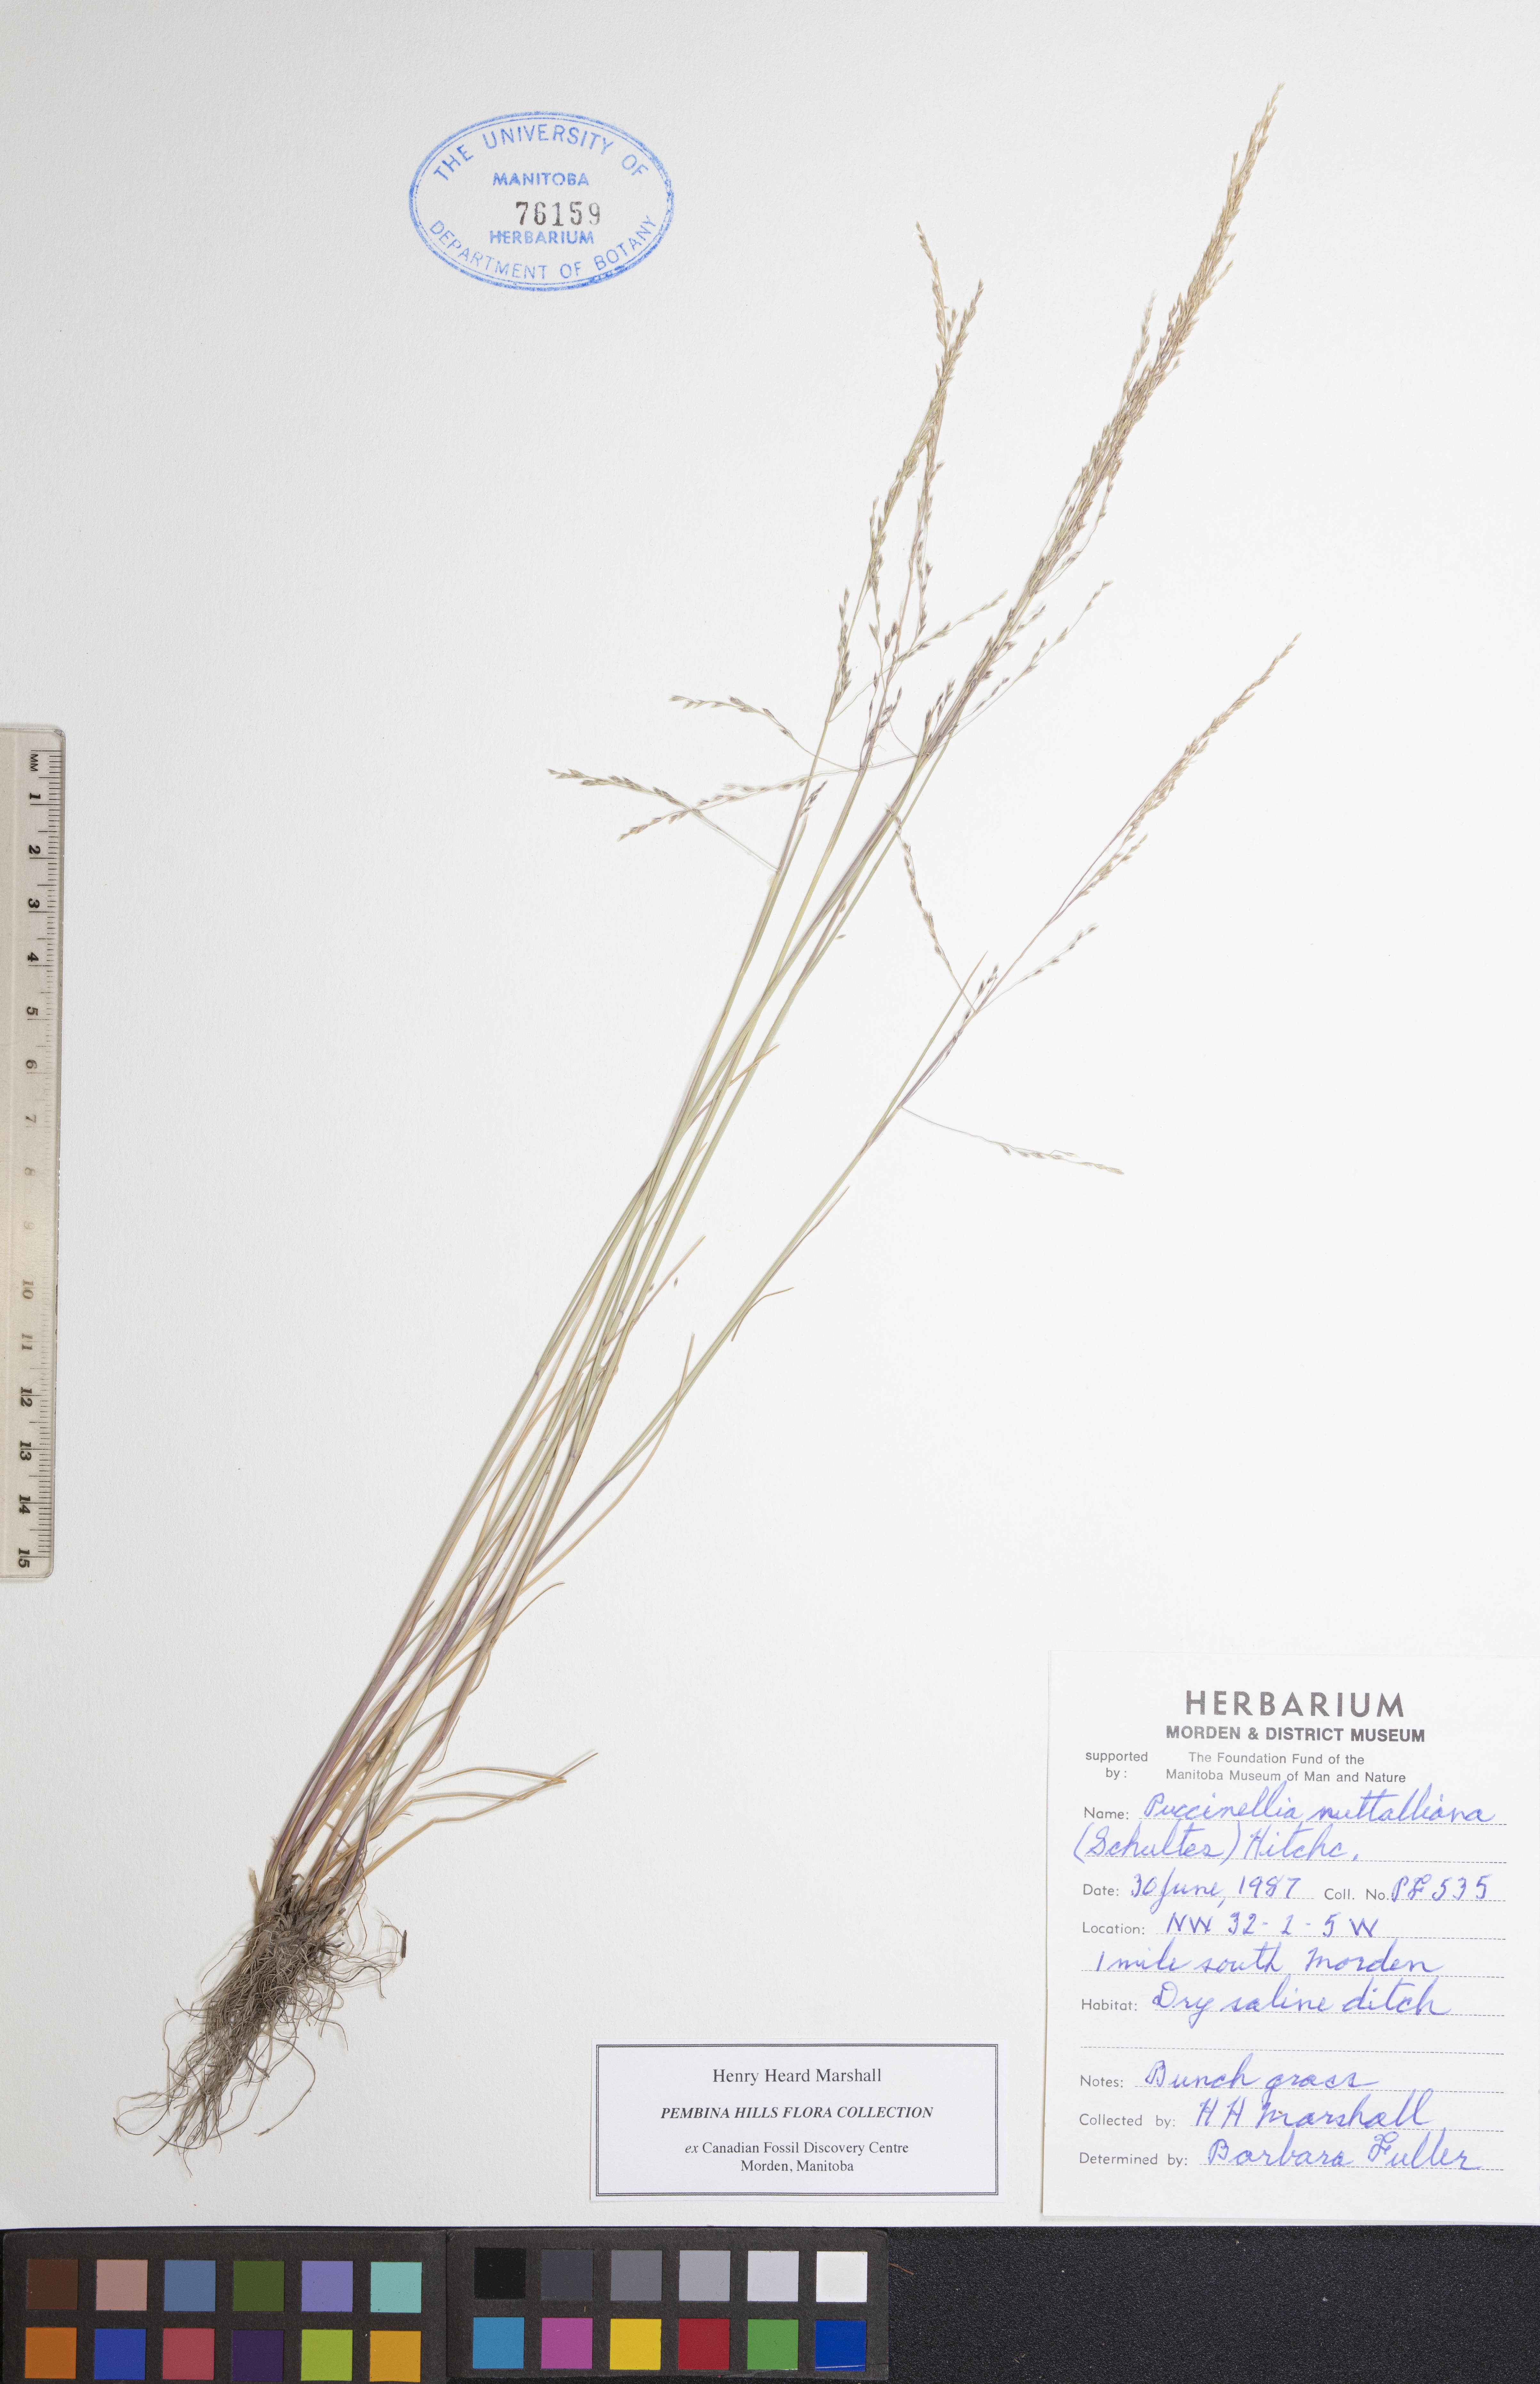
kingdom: Plantae
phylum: Tracheophyta
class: Liliopsida
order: Poales
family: Poaceae
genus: Puccinellia
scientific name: Puccinellia nuttalliana
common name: Nuttall's alkali grass
